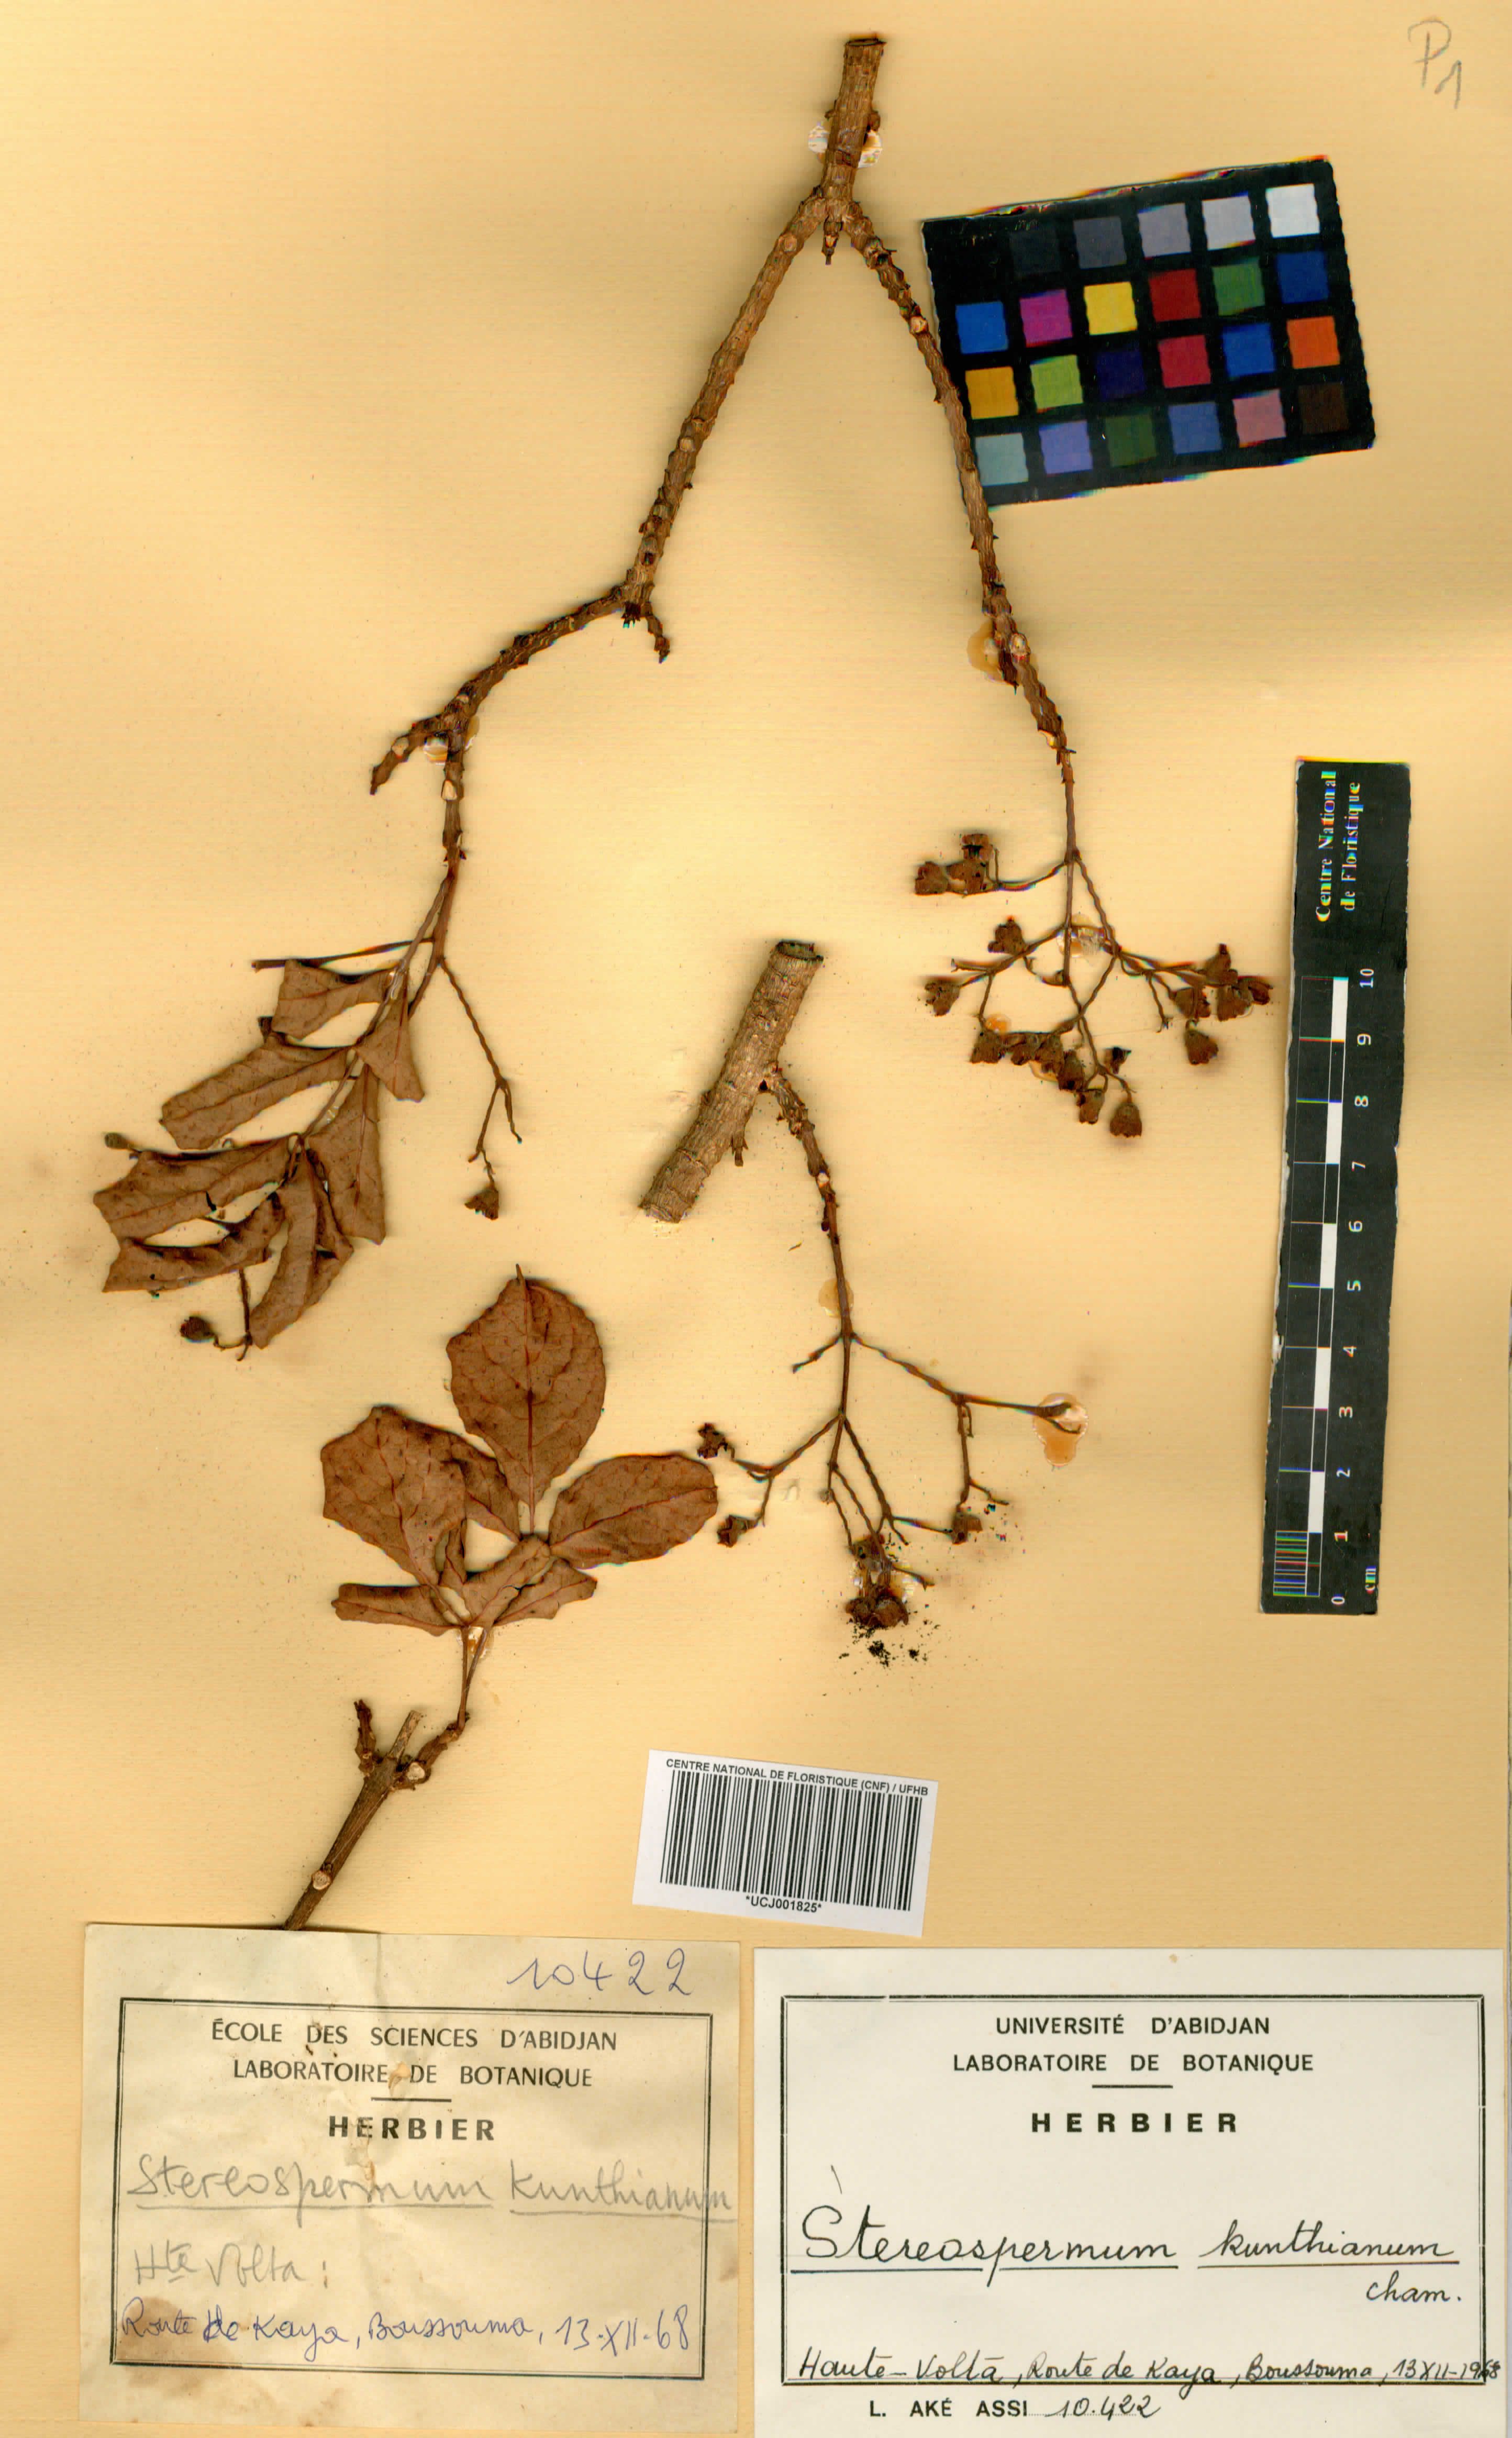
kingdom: Plantae
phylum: Tracheophyta
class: Magnoliopsida
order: Lamiales
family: Bignoniaceae
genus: Stereospermum
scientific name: Stereospermum kunthianum
